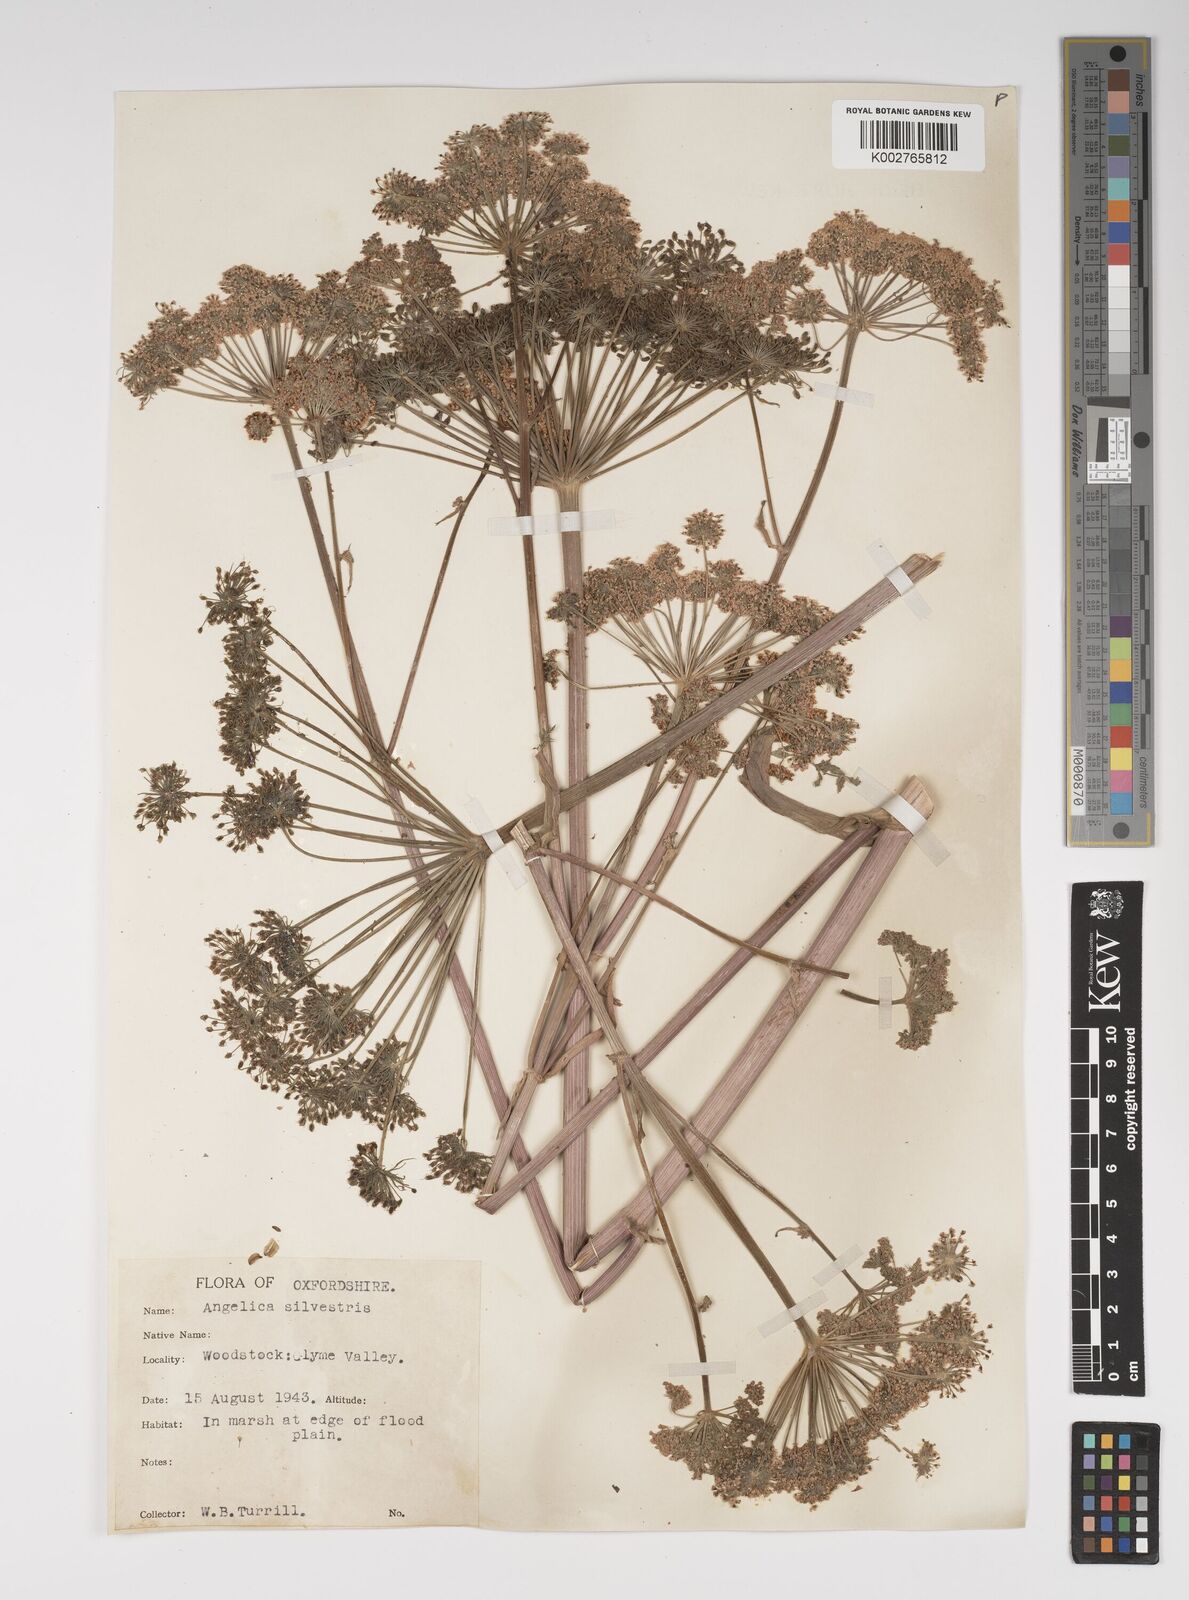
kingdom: Plantae
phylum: Tracheophyta
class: Magnoliopsida
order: Apiales
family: Apiaceae
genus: Angelica
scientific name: Angelica sylvestris
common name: Wild angelica
